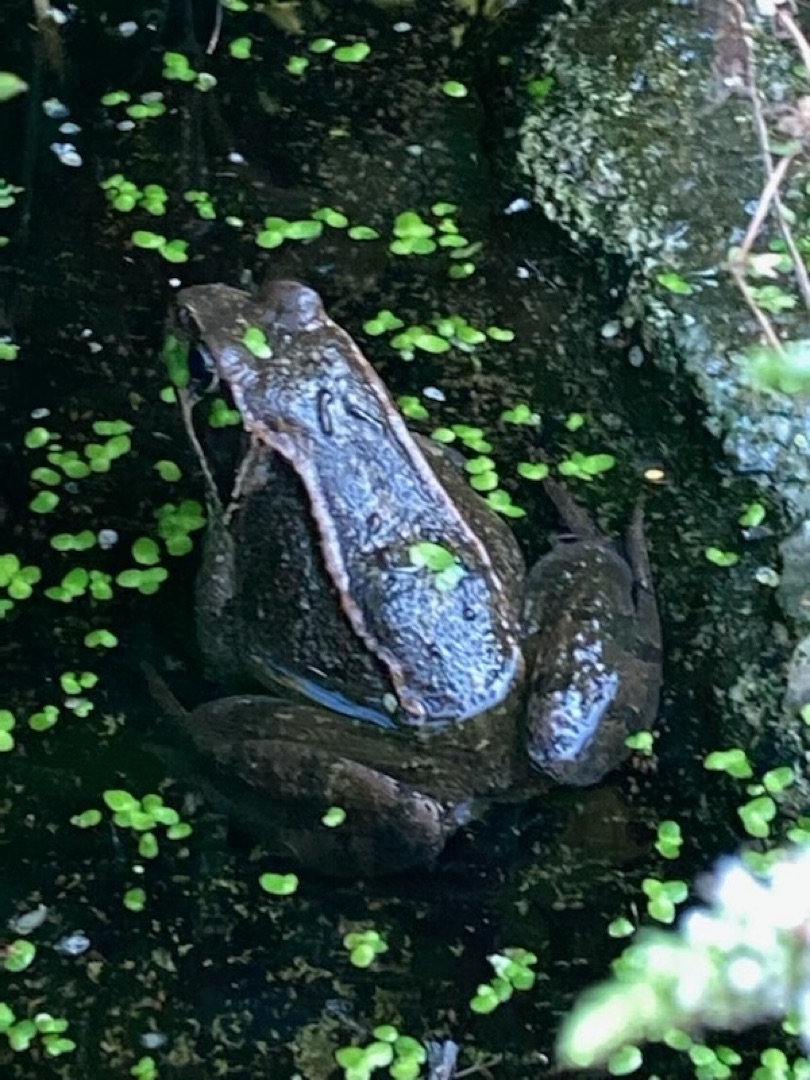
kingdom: Animalia
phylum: Chordata
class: Amphibia
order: Anura
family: Ranidae
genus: Rana
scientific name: Rana temporaria
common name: Butsnudet frø
